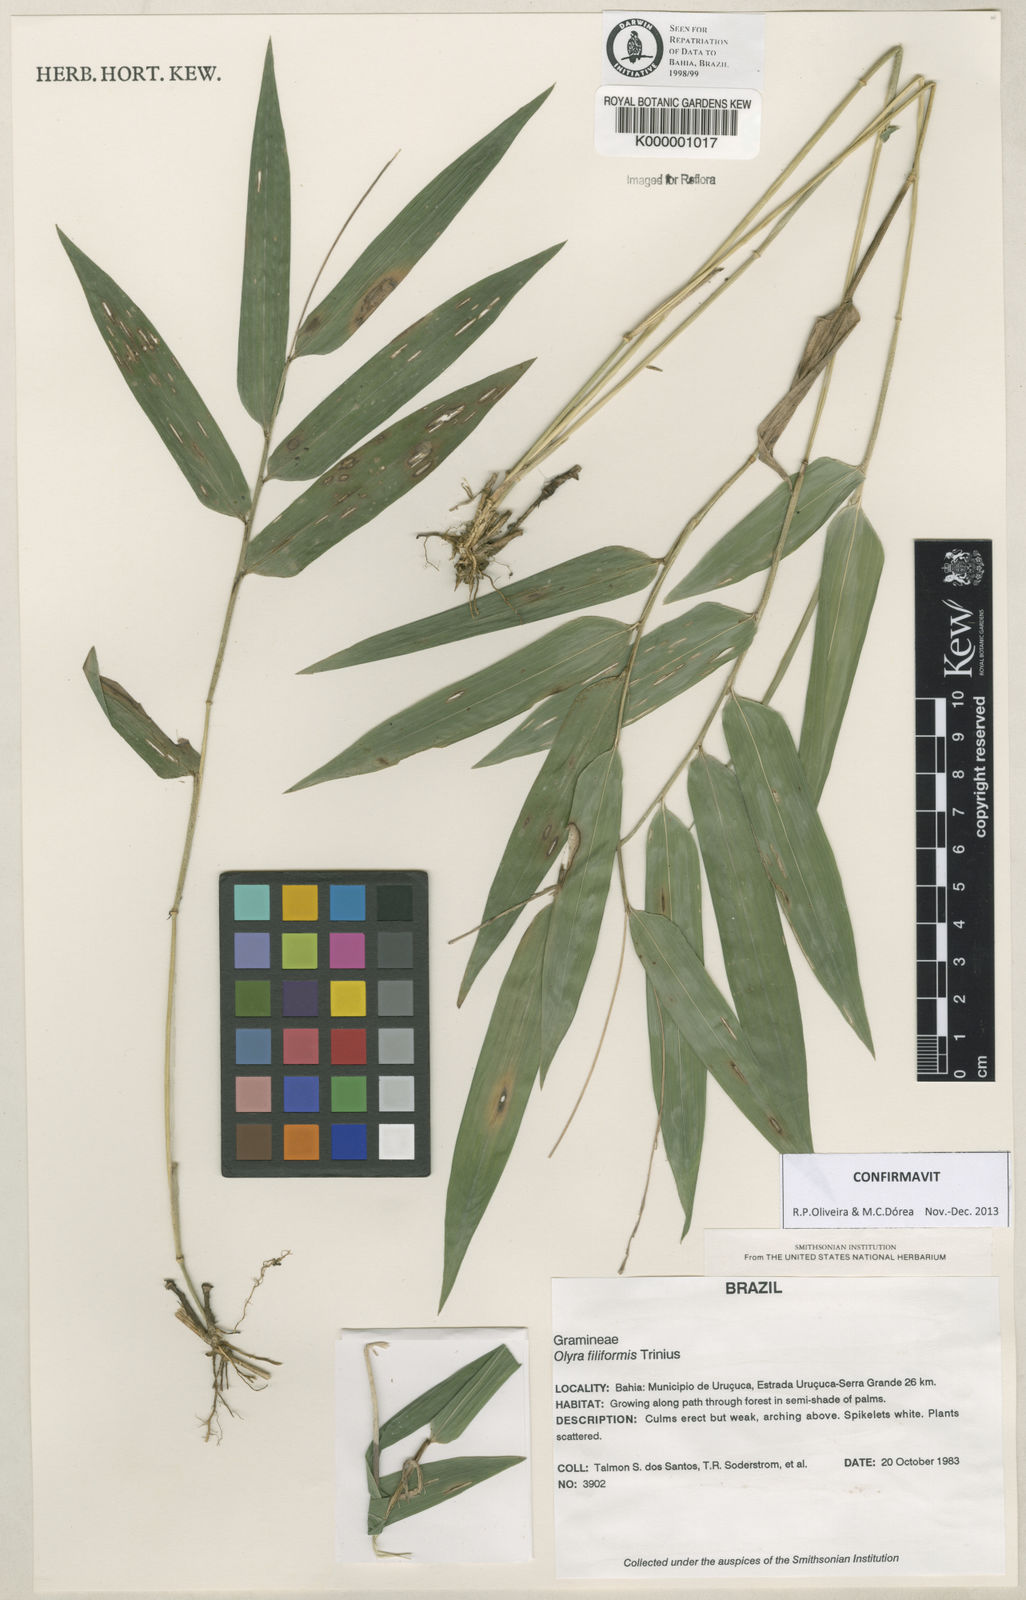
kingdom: Plantae
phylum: Tracheophyta
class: Liliopsida
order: Poales
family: Poaceae
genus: Olyra
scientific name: Olyra filiformis
